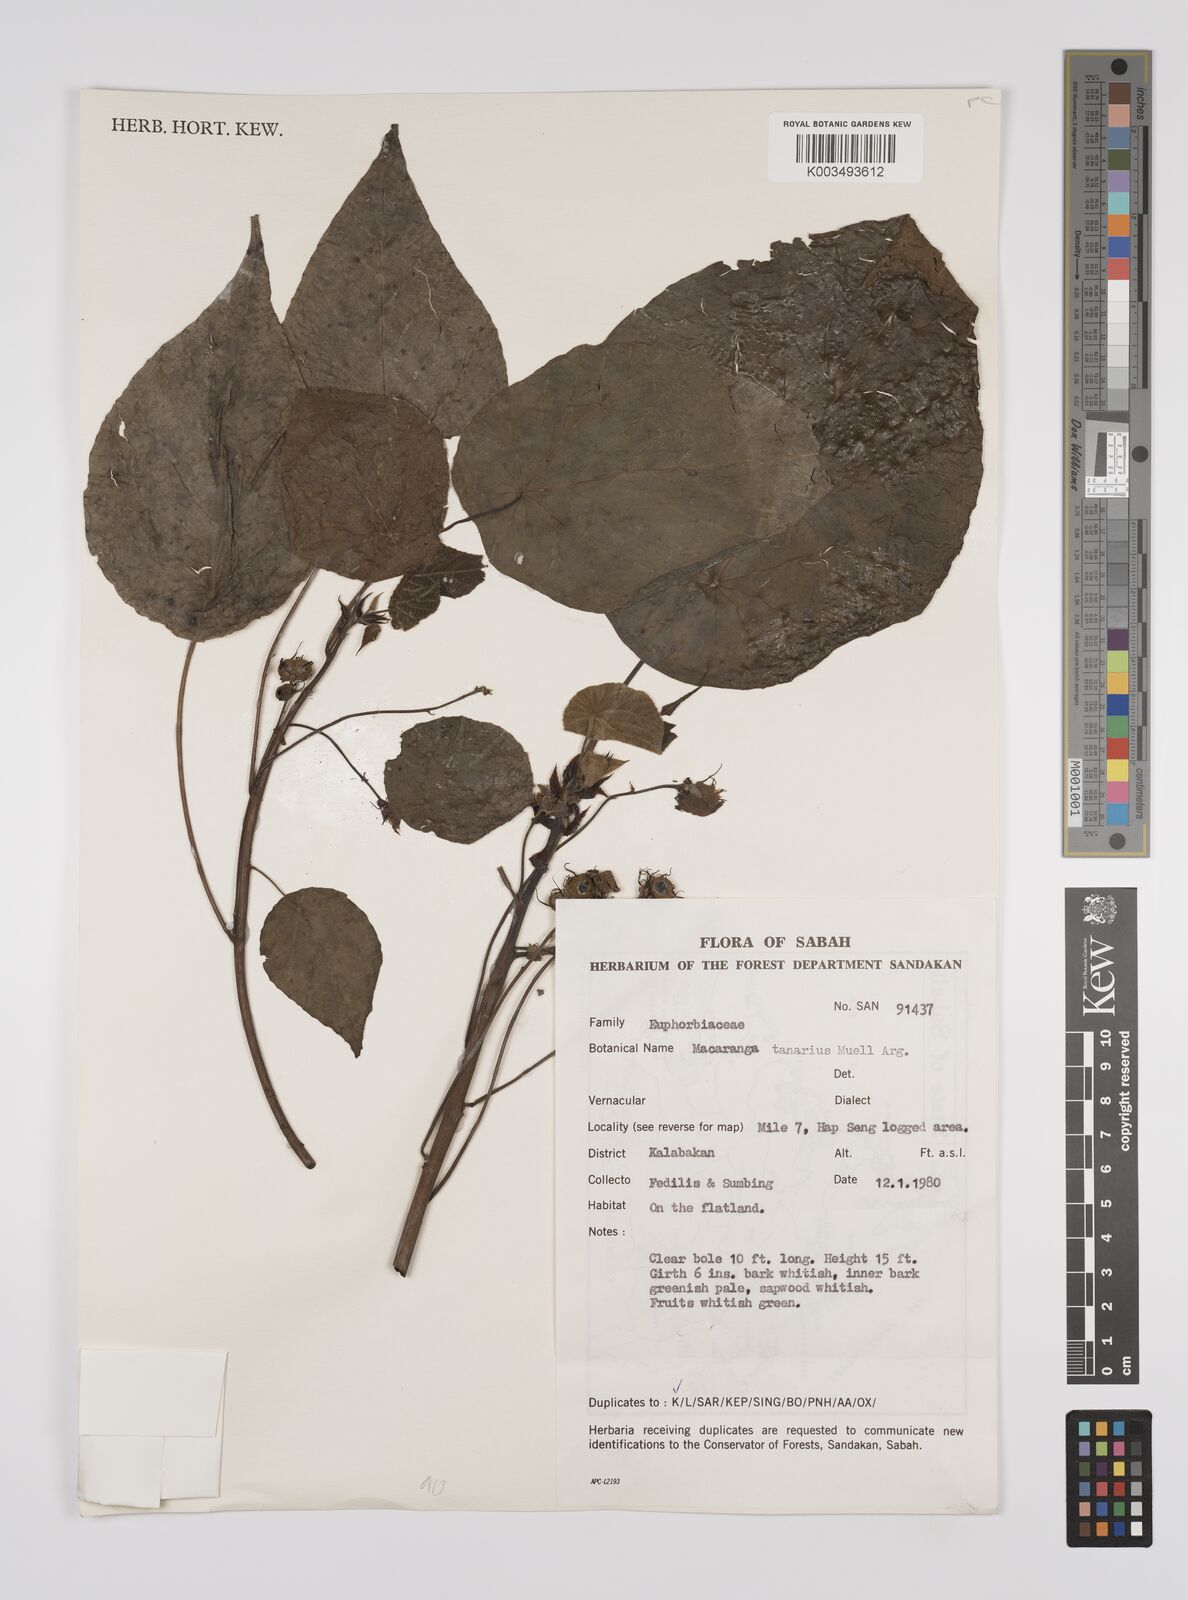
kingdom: Plantae
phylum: Tracheophyta
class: Magnoliopsida
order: Malpighiales
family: Euphorbiaceae
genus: Macaranga
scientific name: Macaranga tanarius
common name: Parasol leaf tree
